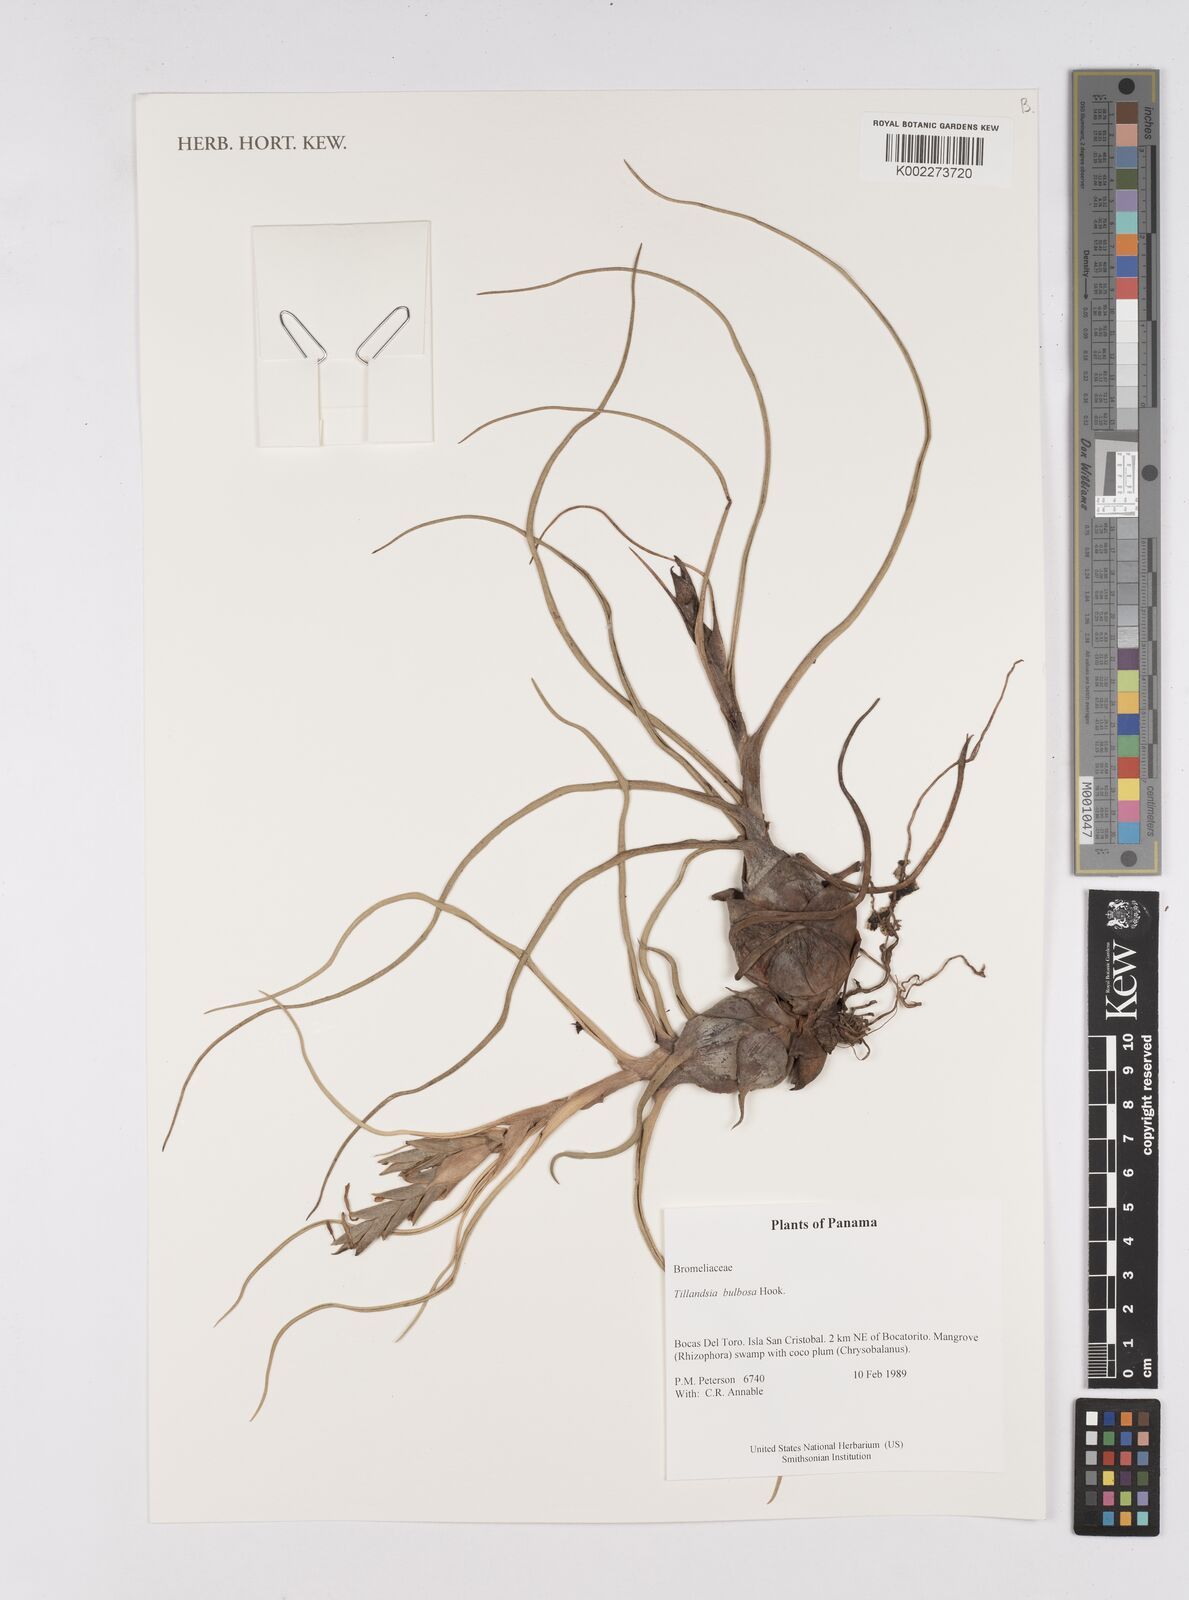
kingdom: Plantae
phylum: Tracheophyta
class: Liliopsida
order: Poales
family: Bromeliaceae
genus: Tillandsia
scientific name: Tillandsia bulbosa
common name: Bulbous airplant
